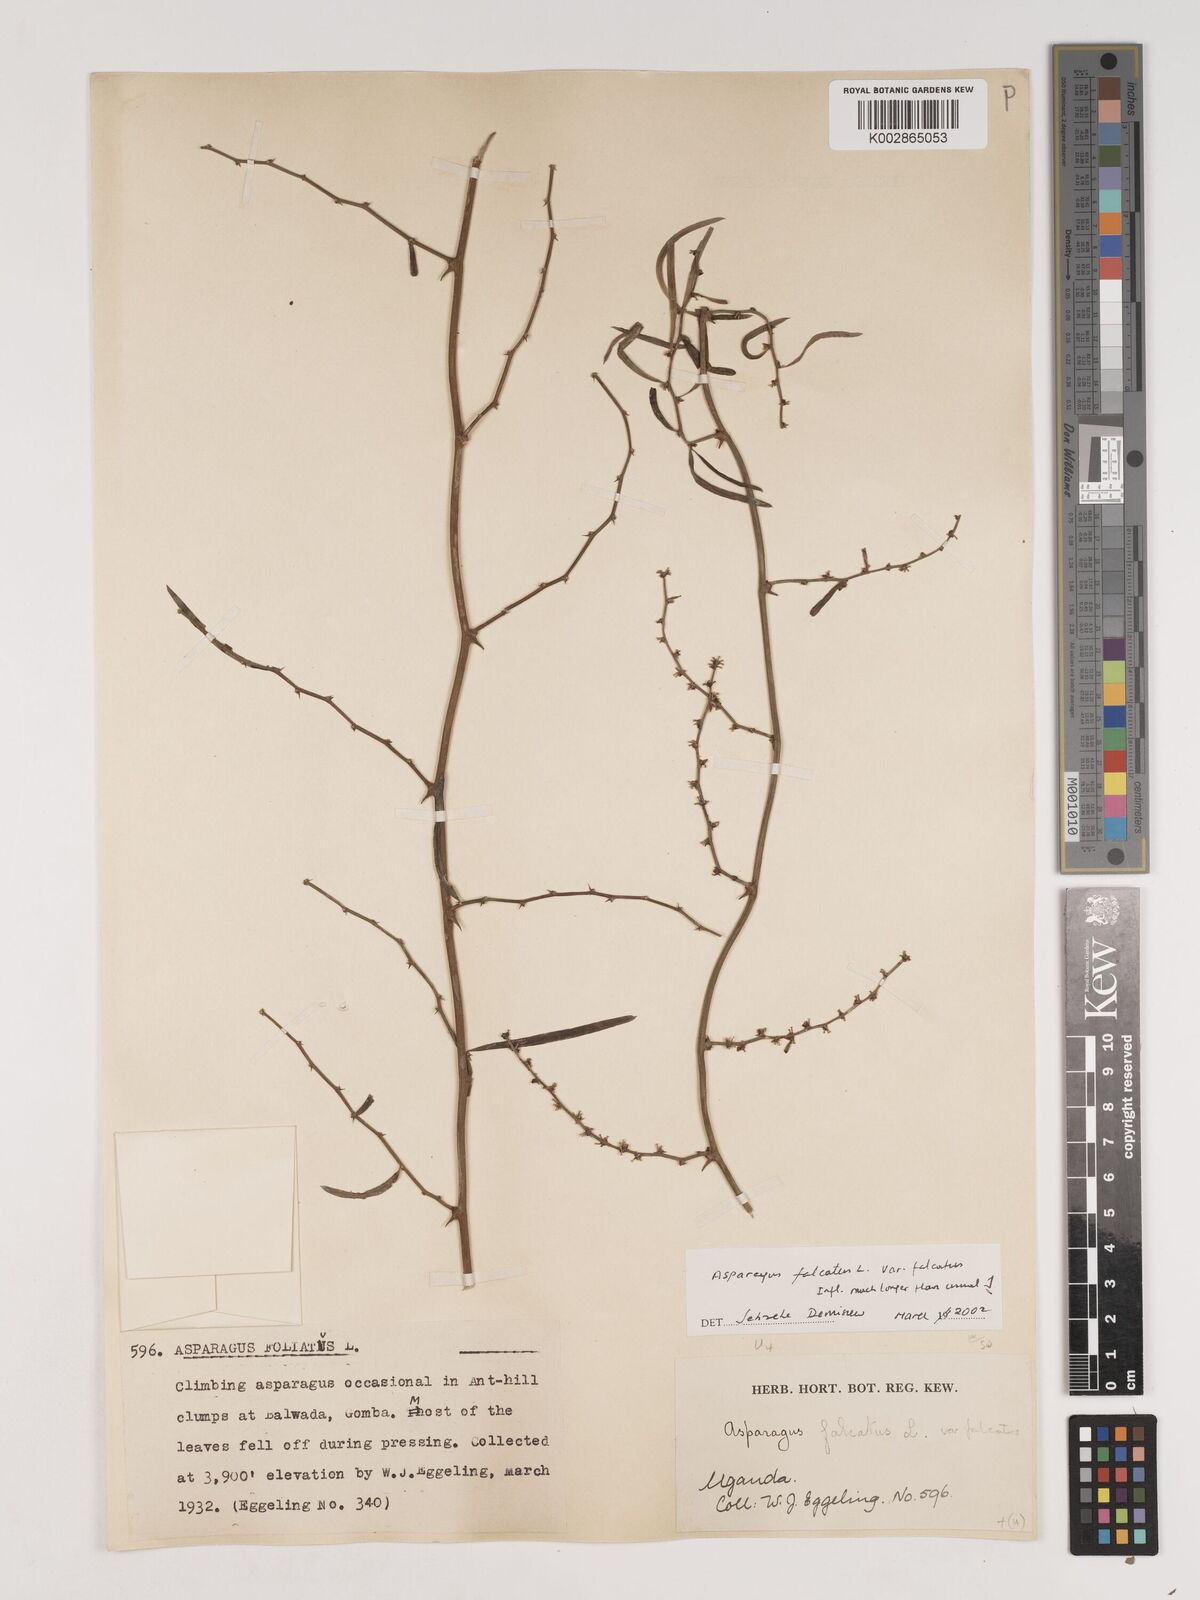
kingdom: Plantae
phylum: Tracheophyta
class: Liliopsida
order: Asparagales
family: Asparagaceae
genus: Asparagus
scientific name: Asparagus falcatus
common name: Asparagus
